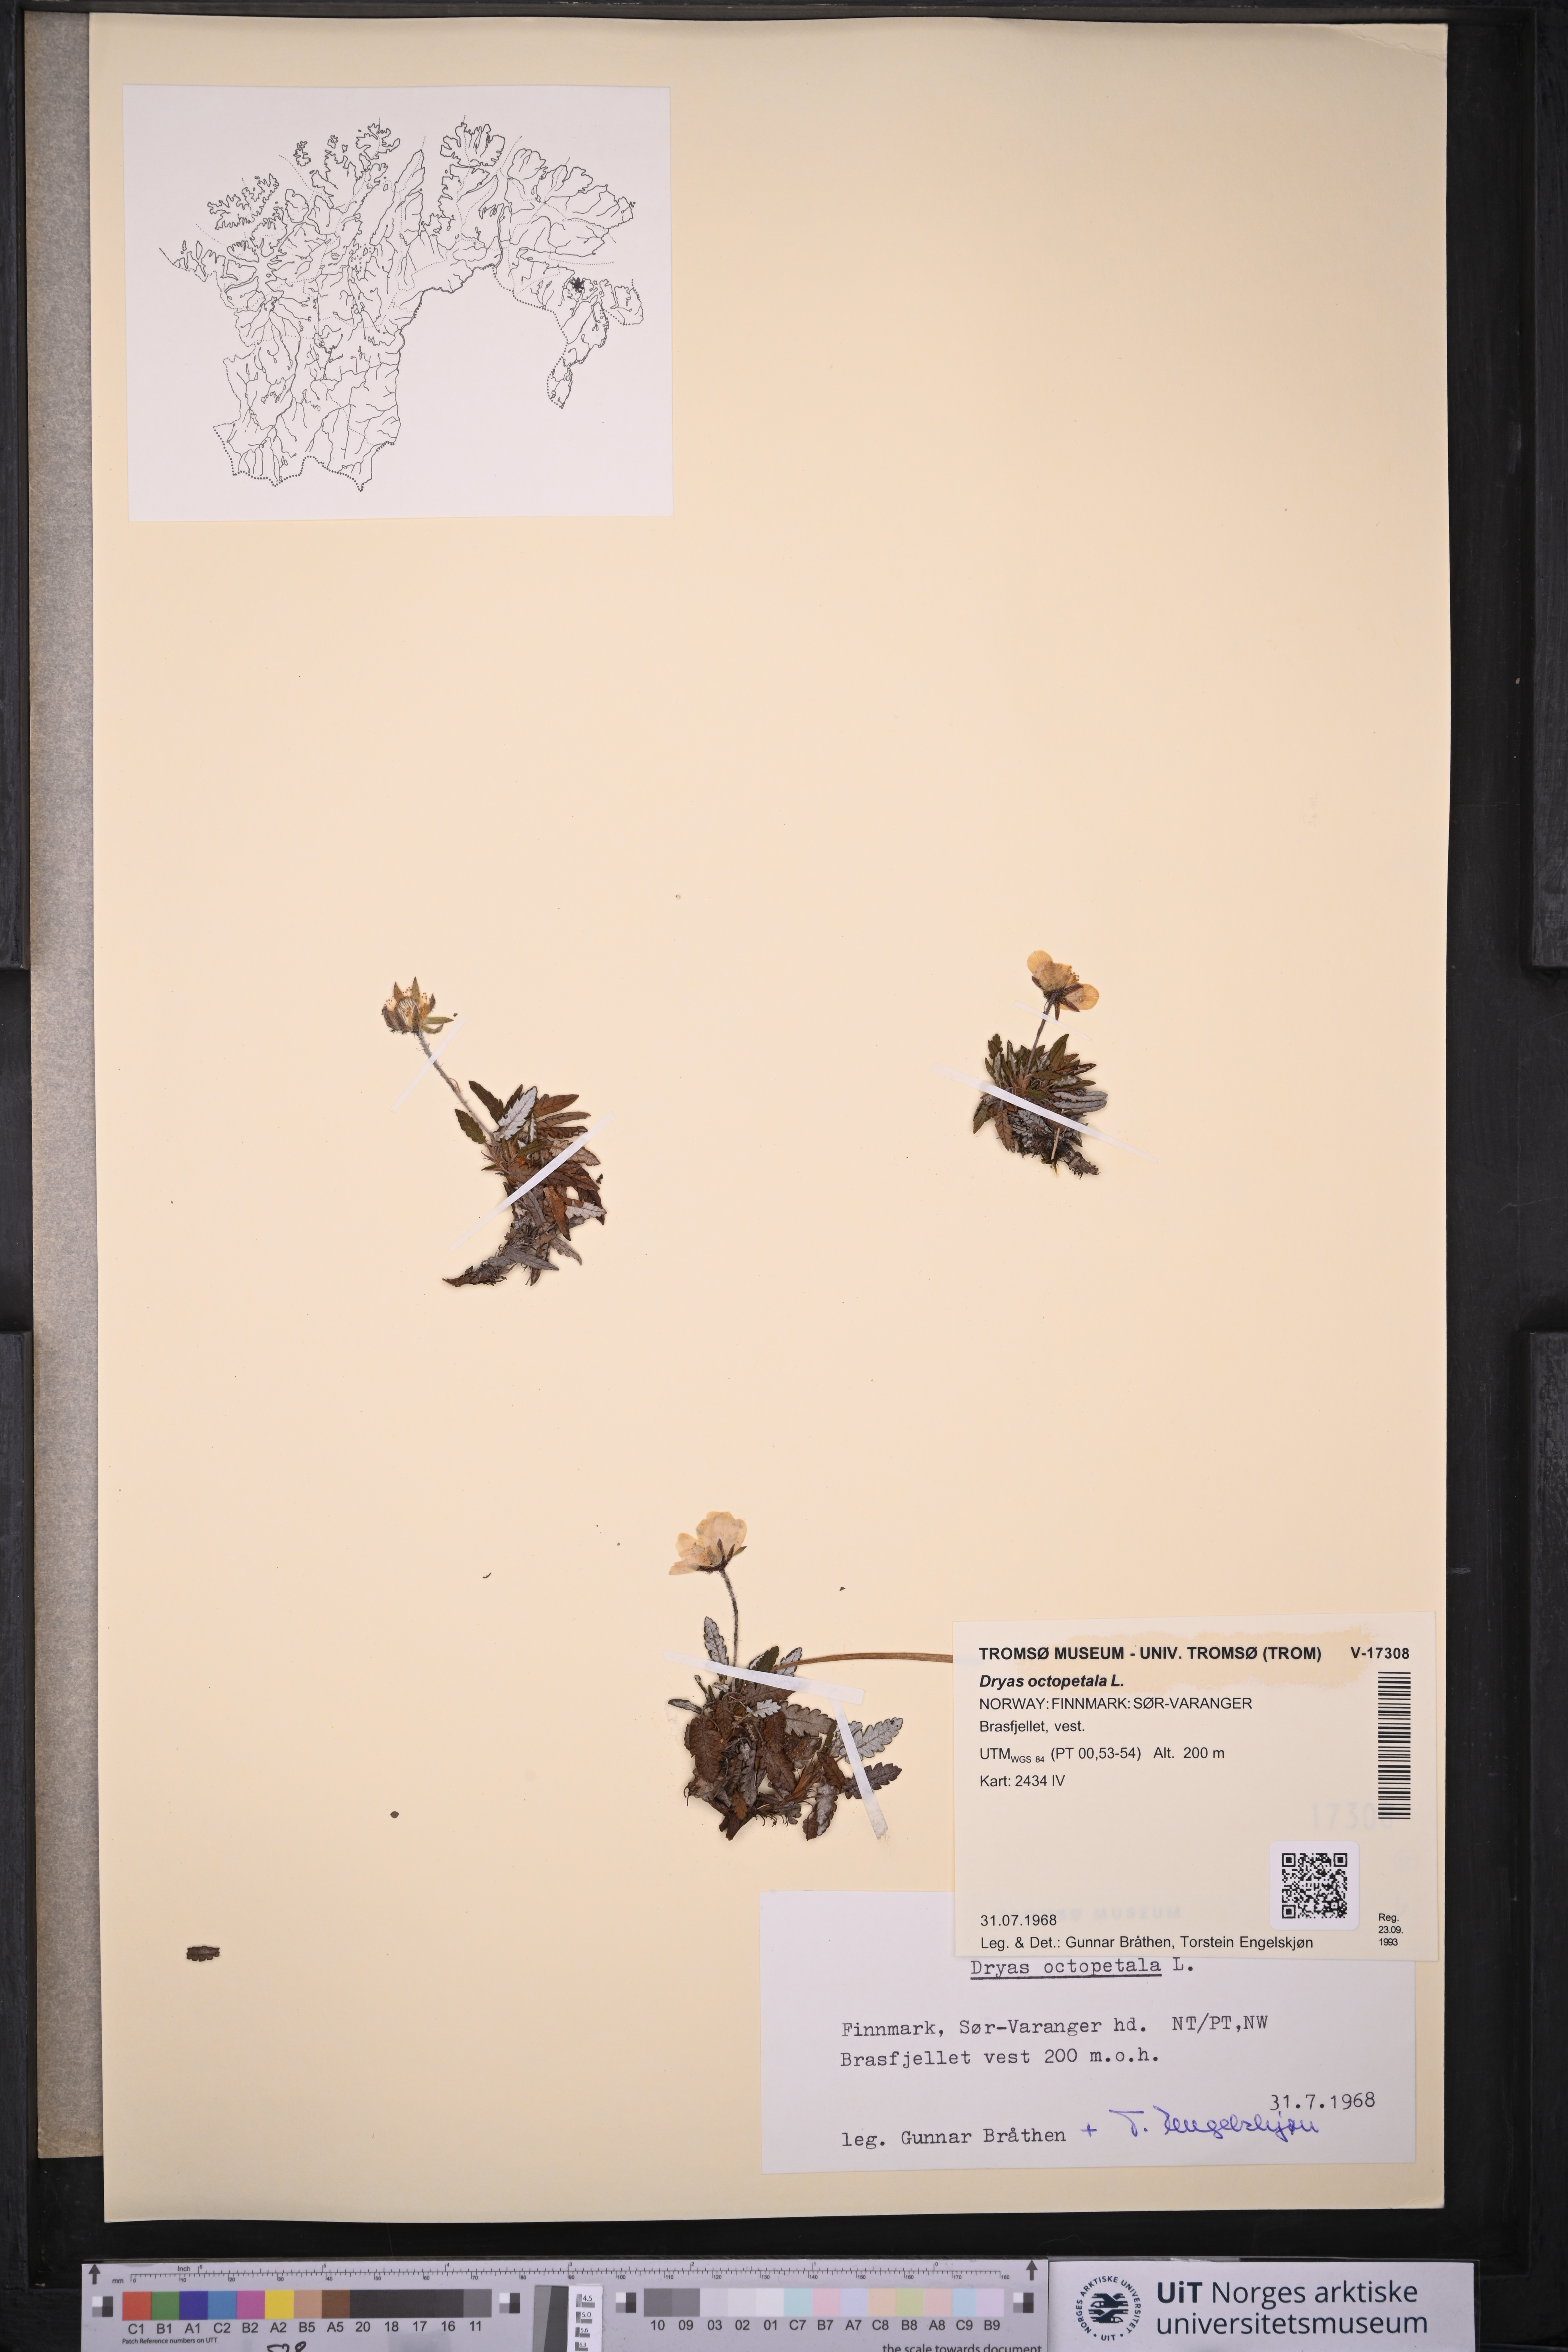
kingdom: Plantae
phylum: Tracheophyta
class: Magnoliopsida
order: Rosales
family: Rosaceae
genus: Dryas
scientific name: Dryas octopetala
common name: Eight-petal mountain-avens
